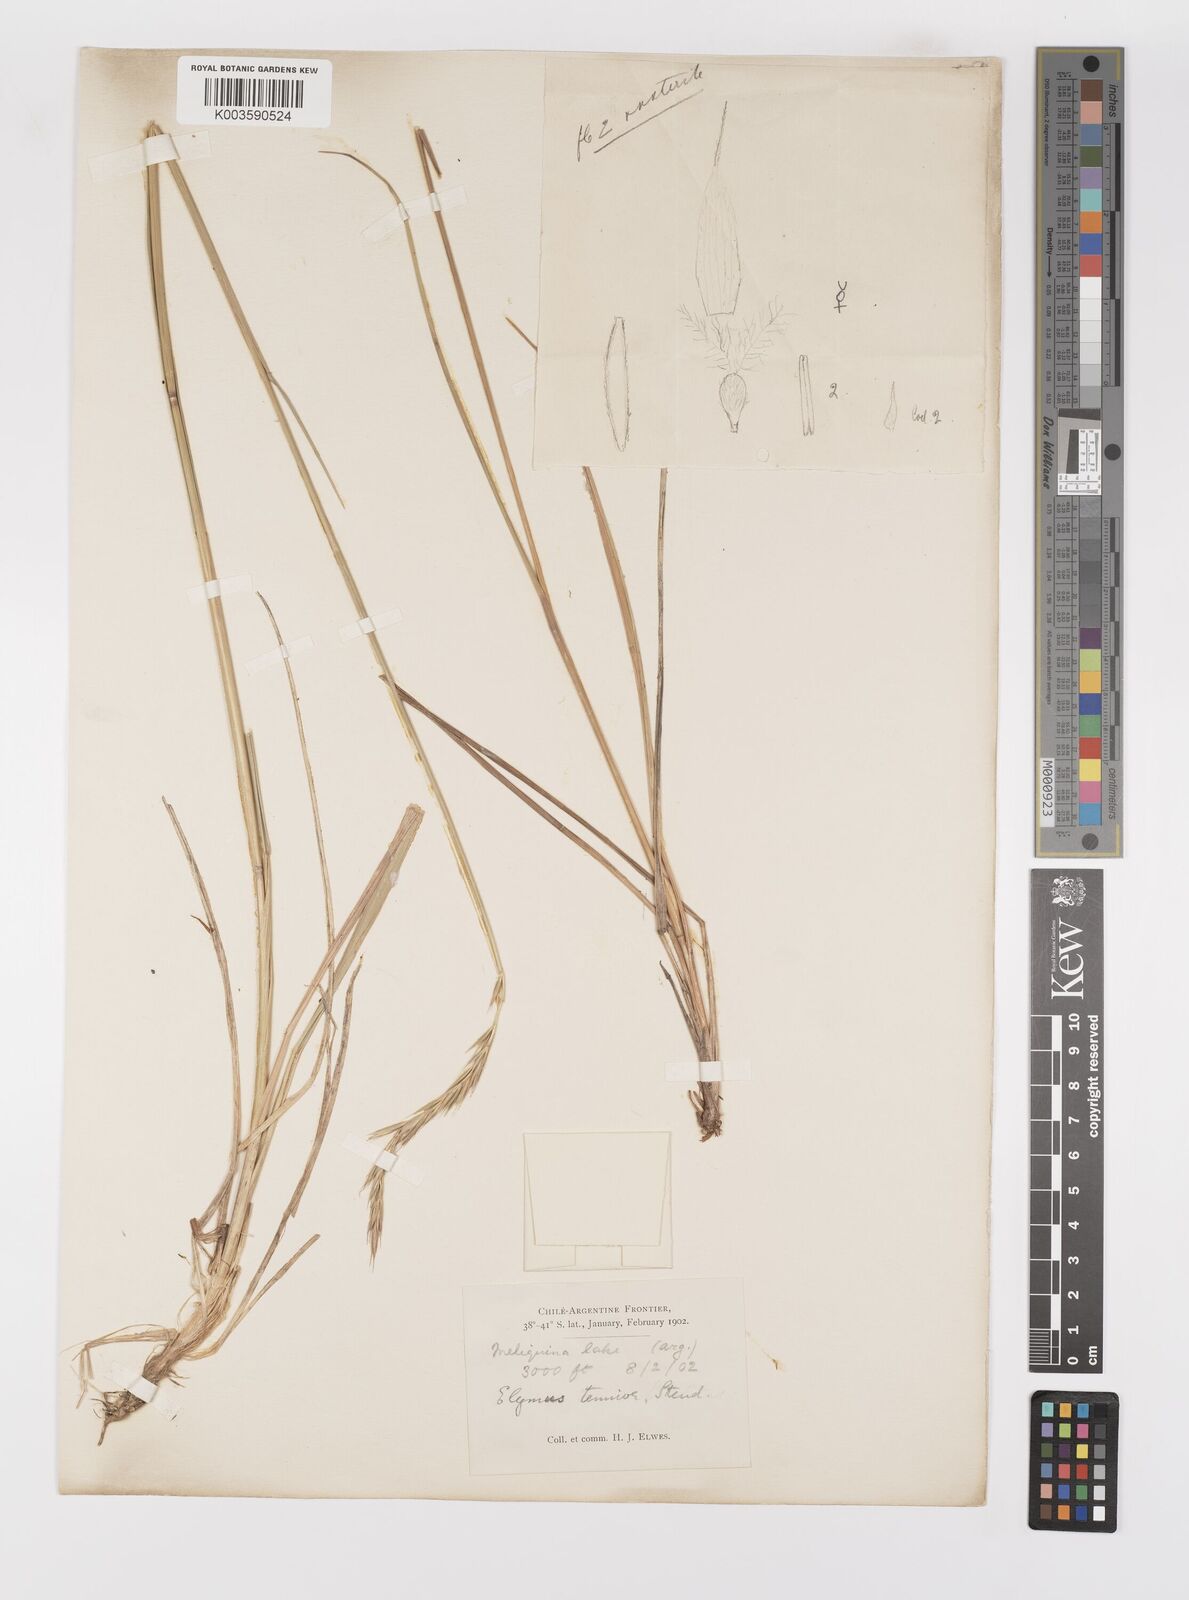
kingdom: Plantae
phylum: Tracheophyta
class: Liliopsida
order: Poales
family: Poaceae
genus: Elymus
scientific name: Elymus
